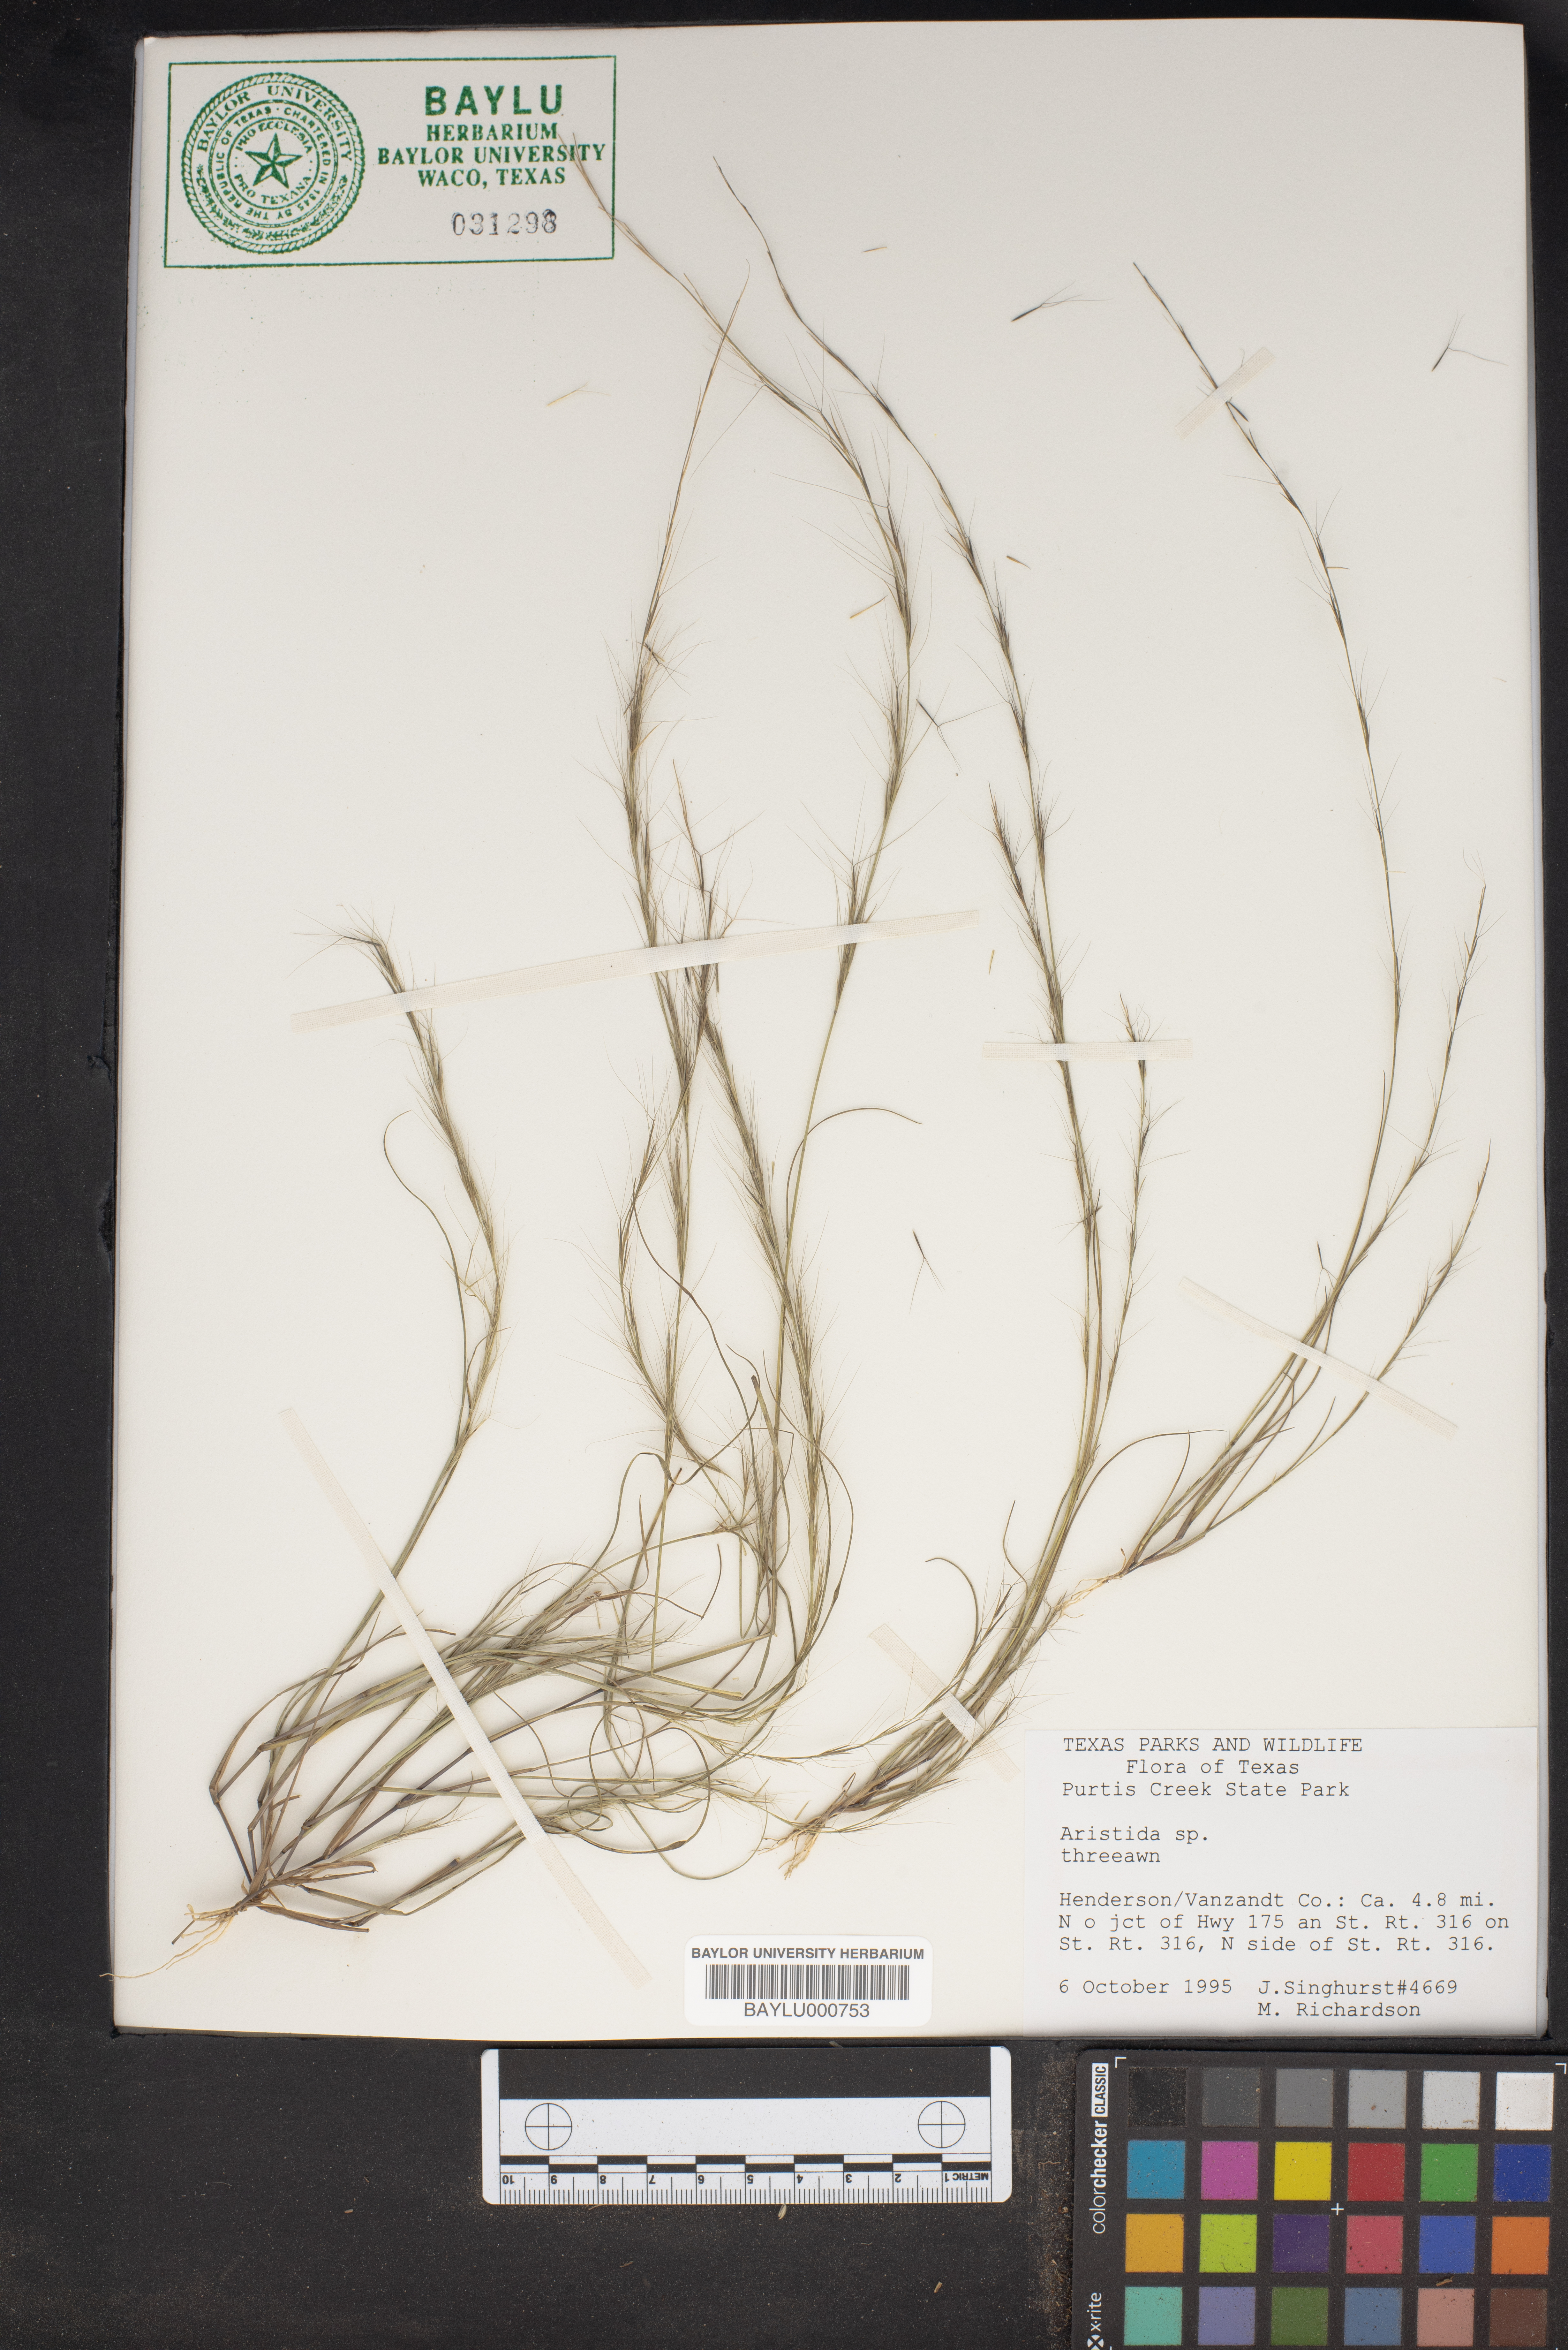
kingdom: Plantae
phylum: Tracheophyta
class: Liliopsida
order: Poales
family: Poaceae
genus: Aristida
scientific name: Aristida
